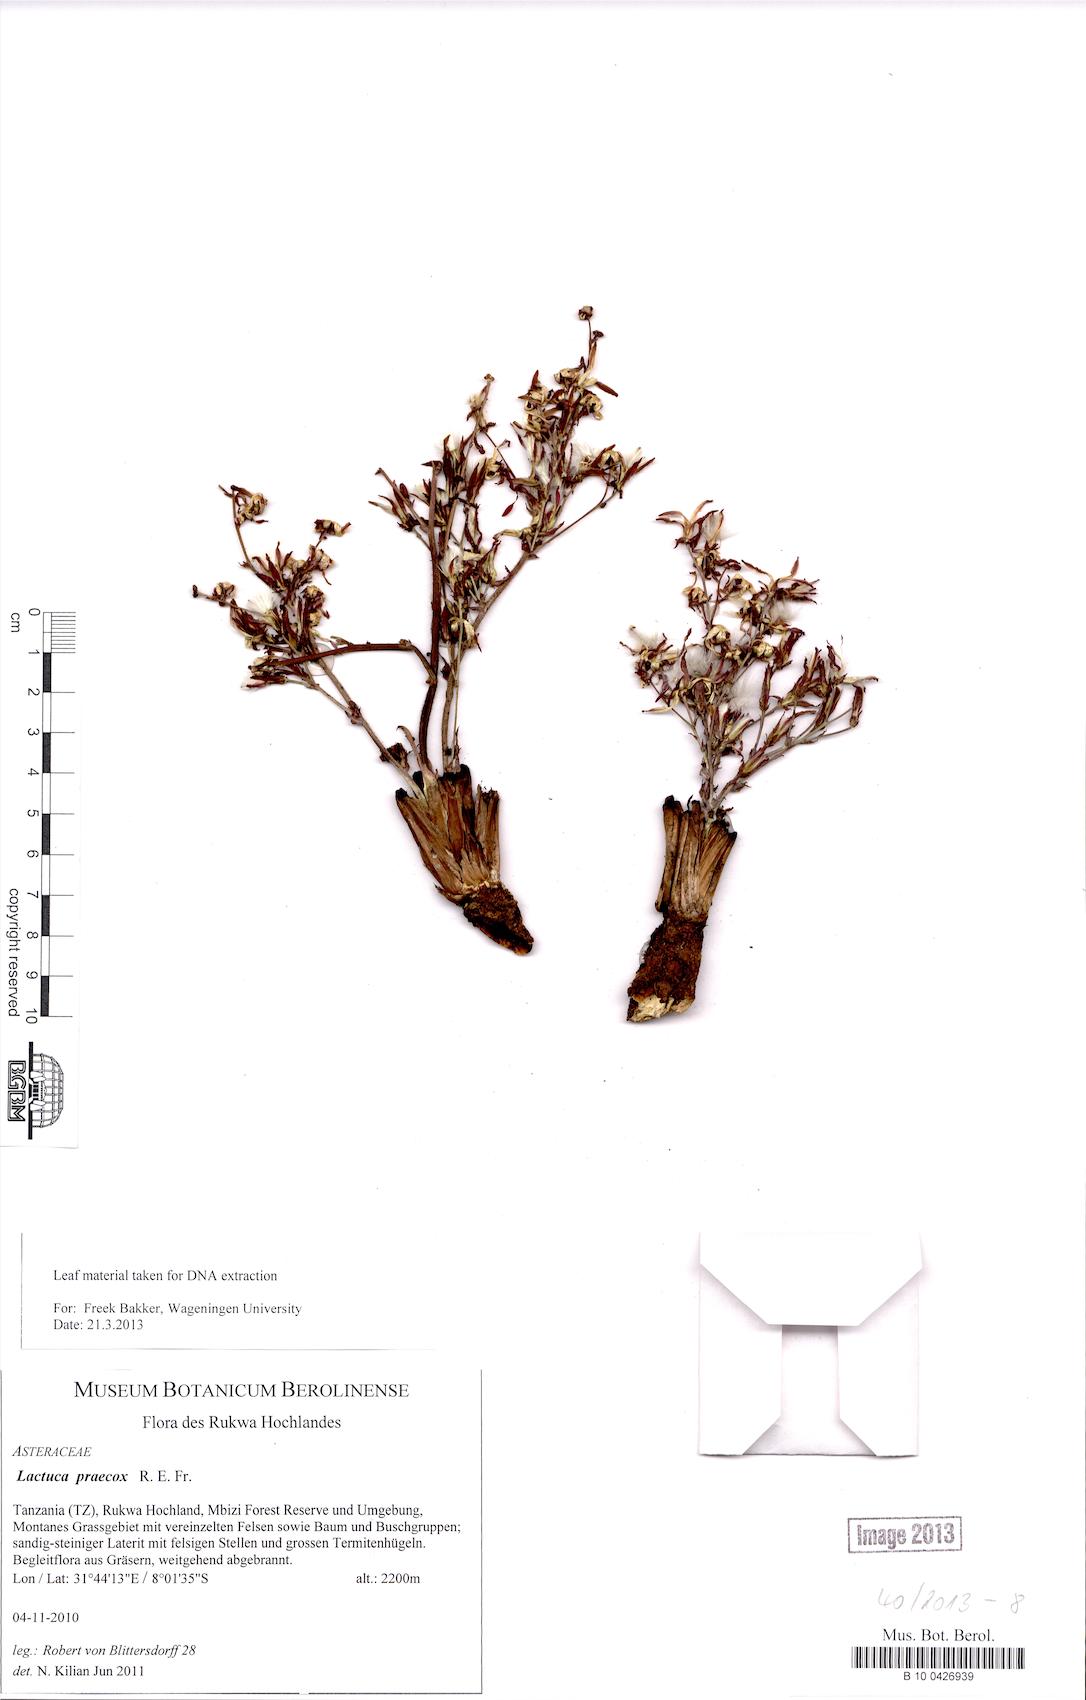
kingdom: Plantae
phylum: Tracheophyta
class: Magnoliopsida
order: Asterales
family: Asteraceae
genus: Lactuca
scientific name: Lactuca praecox
